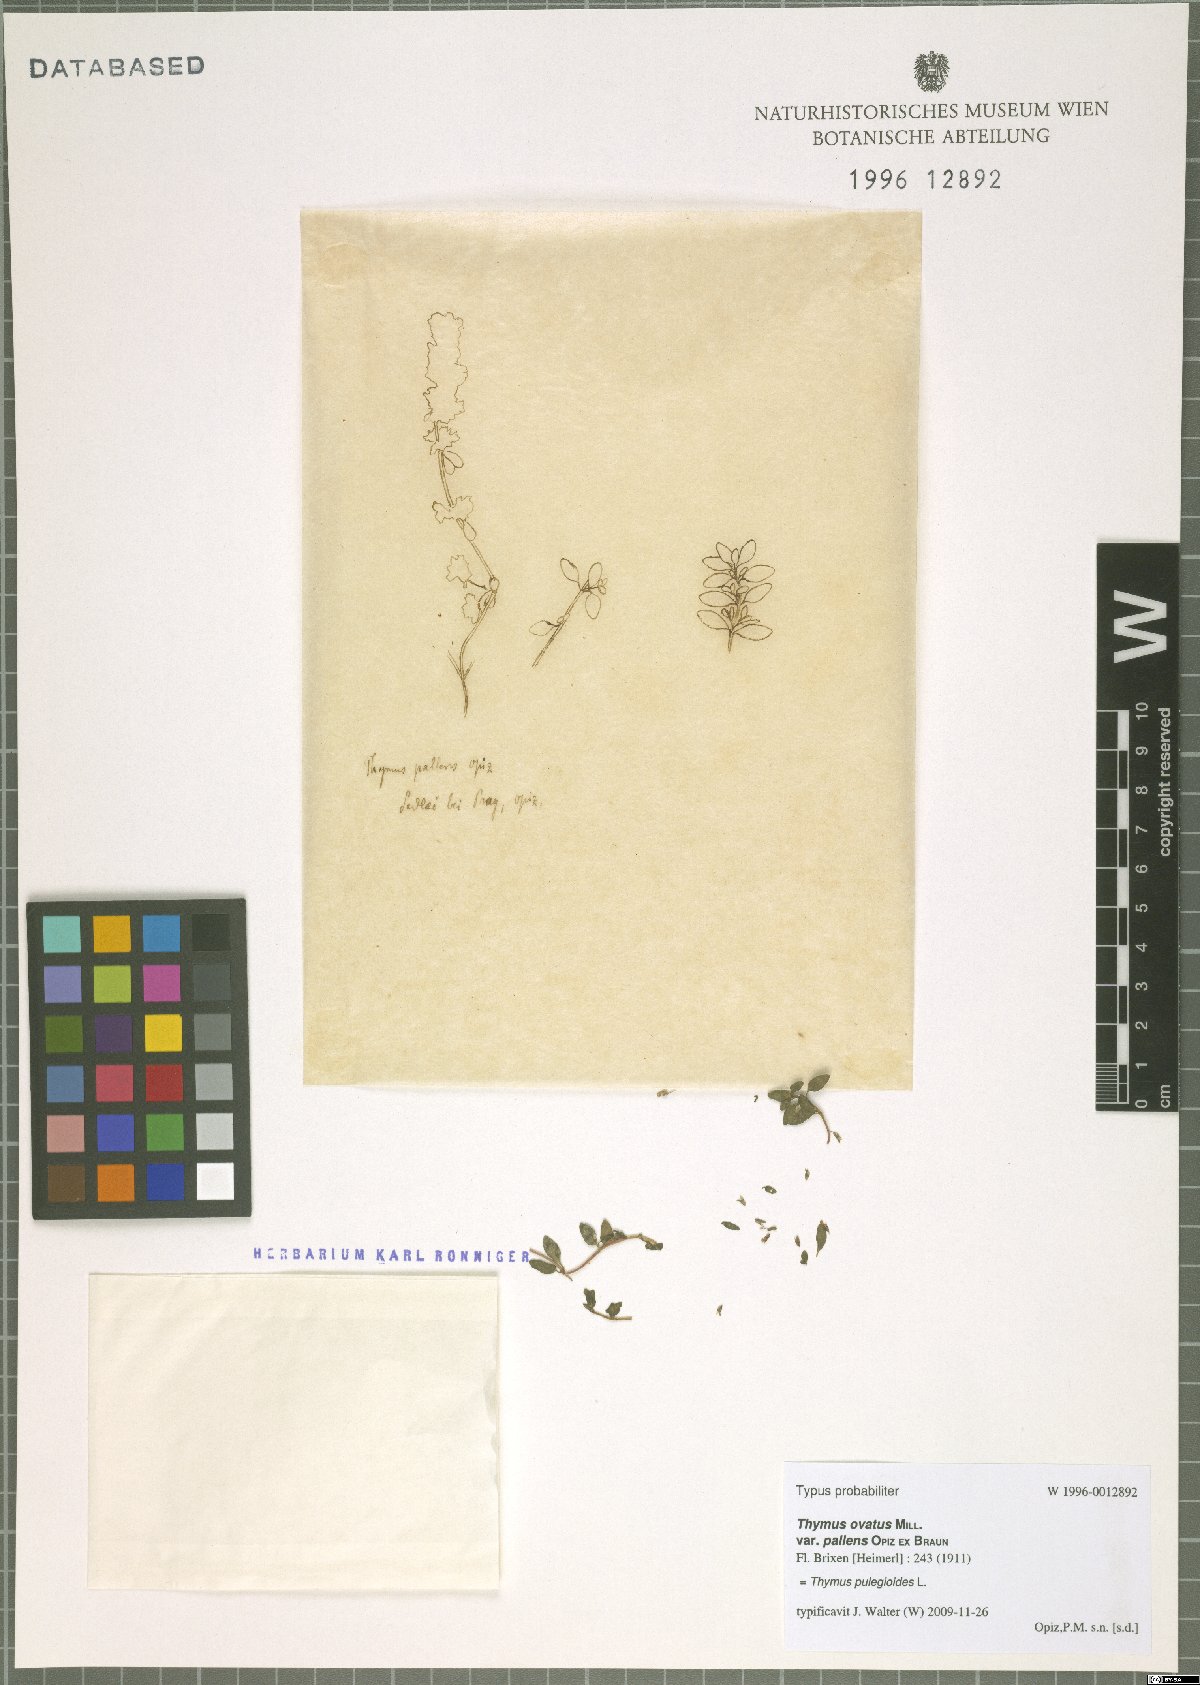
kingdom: Plantae
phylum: Tracheophyta
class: Magnoliopsida
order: Lamiales
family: Lamiaceae
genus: Thymus
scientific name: Thymus pulegioides
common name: Large thyme
